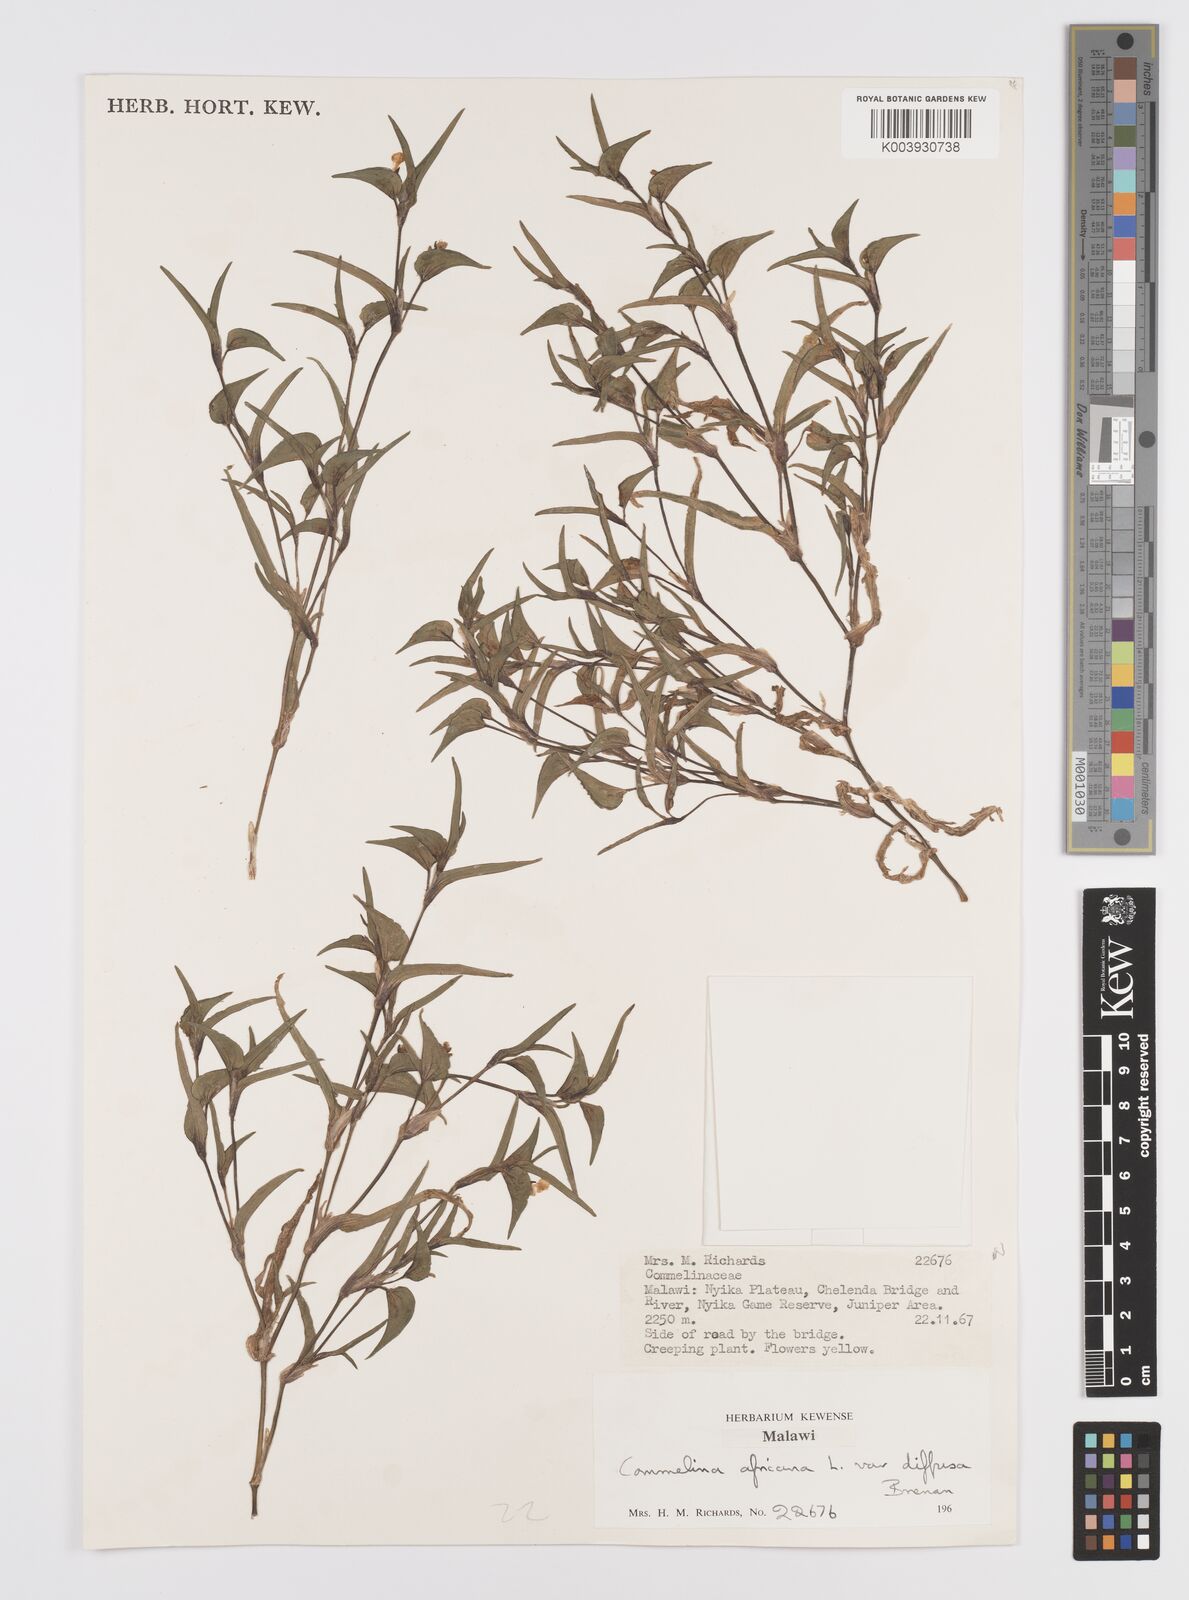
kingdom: Plantae
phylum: Tracheophyta
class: Liliopsida
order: Commelinales
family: Commelinaceae
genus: Commelina
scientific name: Commelina africana
